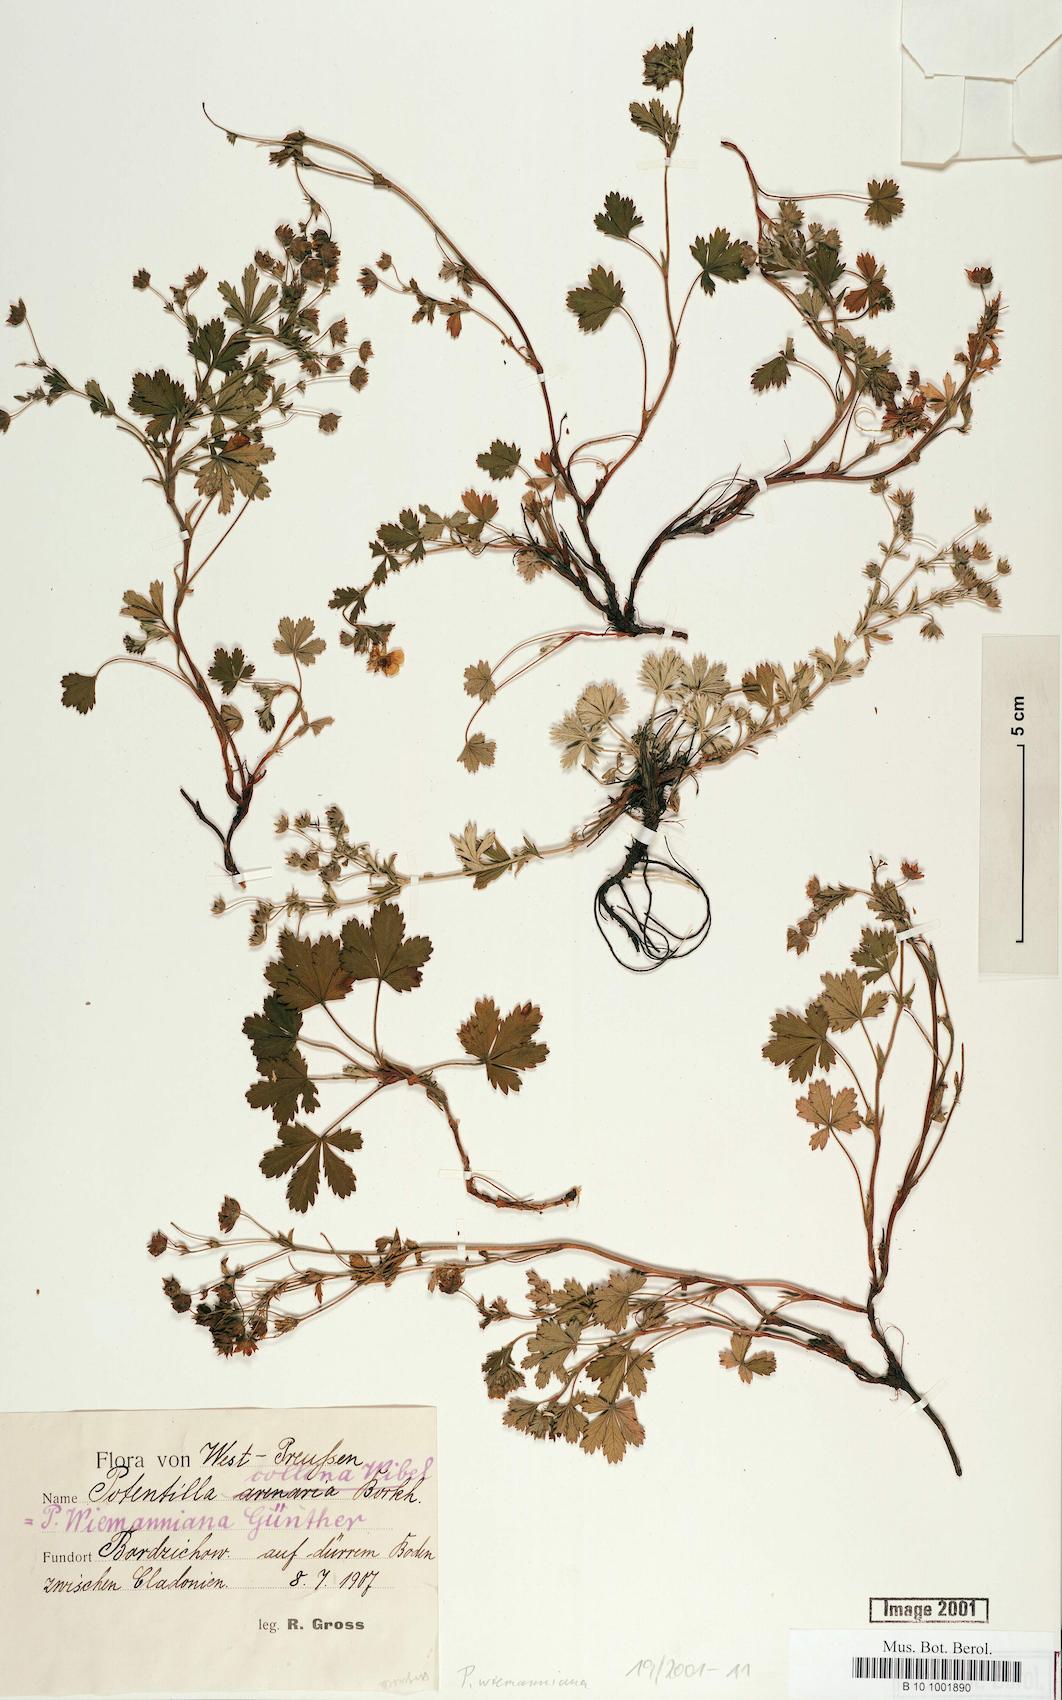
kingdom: Plantae
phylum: Tracheophyta
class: Magnoliopsida
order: Rosales
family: Rosaceae
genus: Potentilla
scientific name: Potentilla
